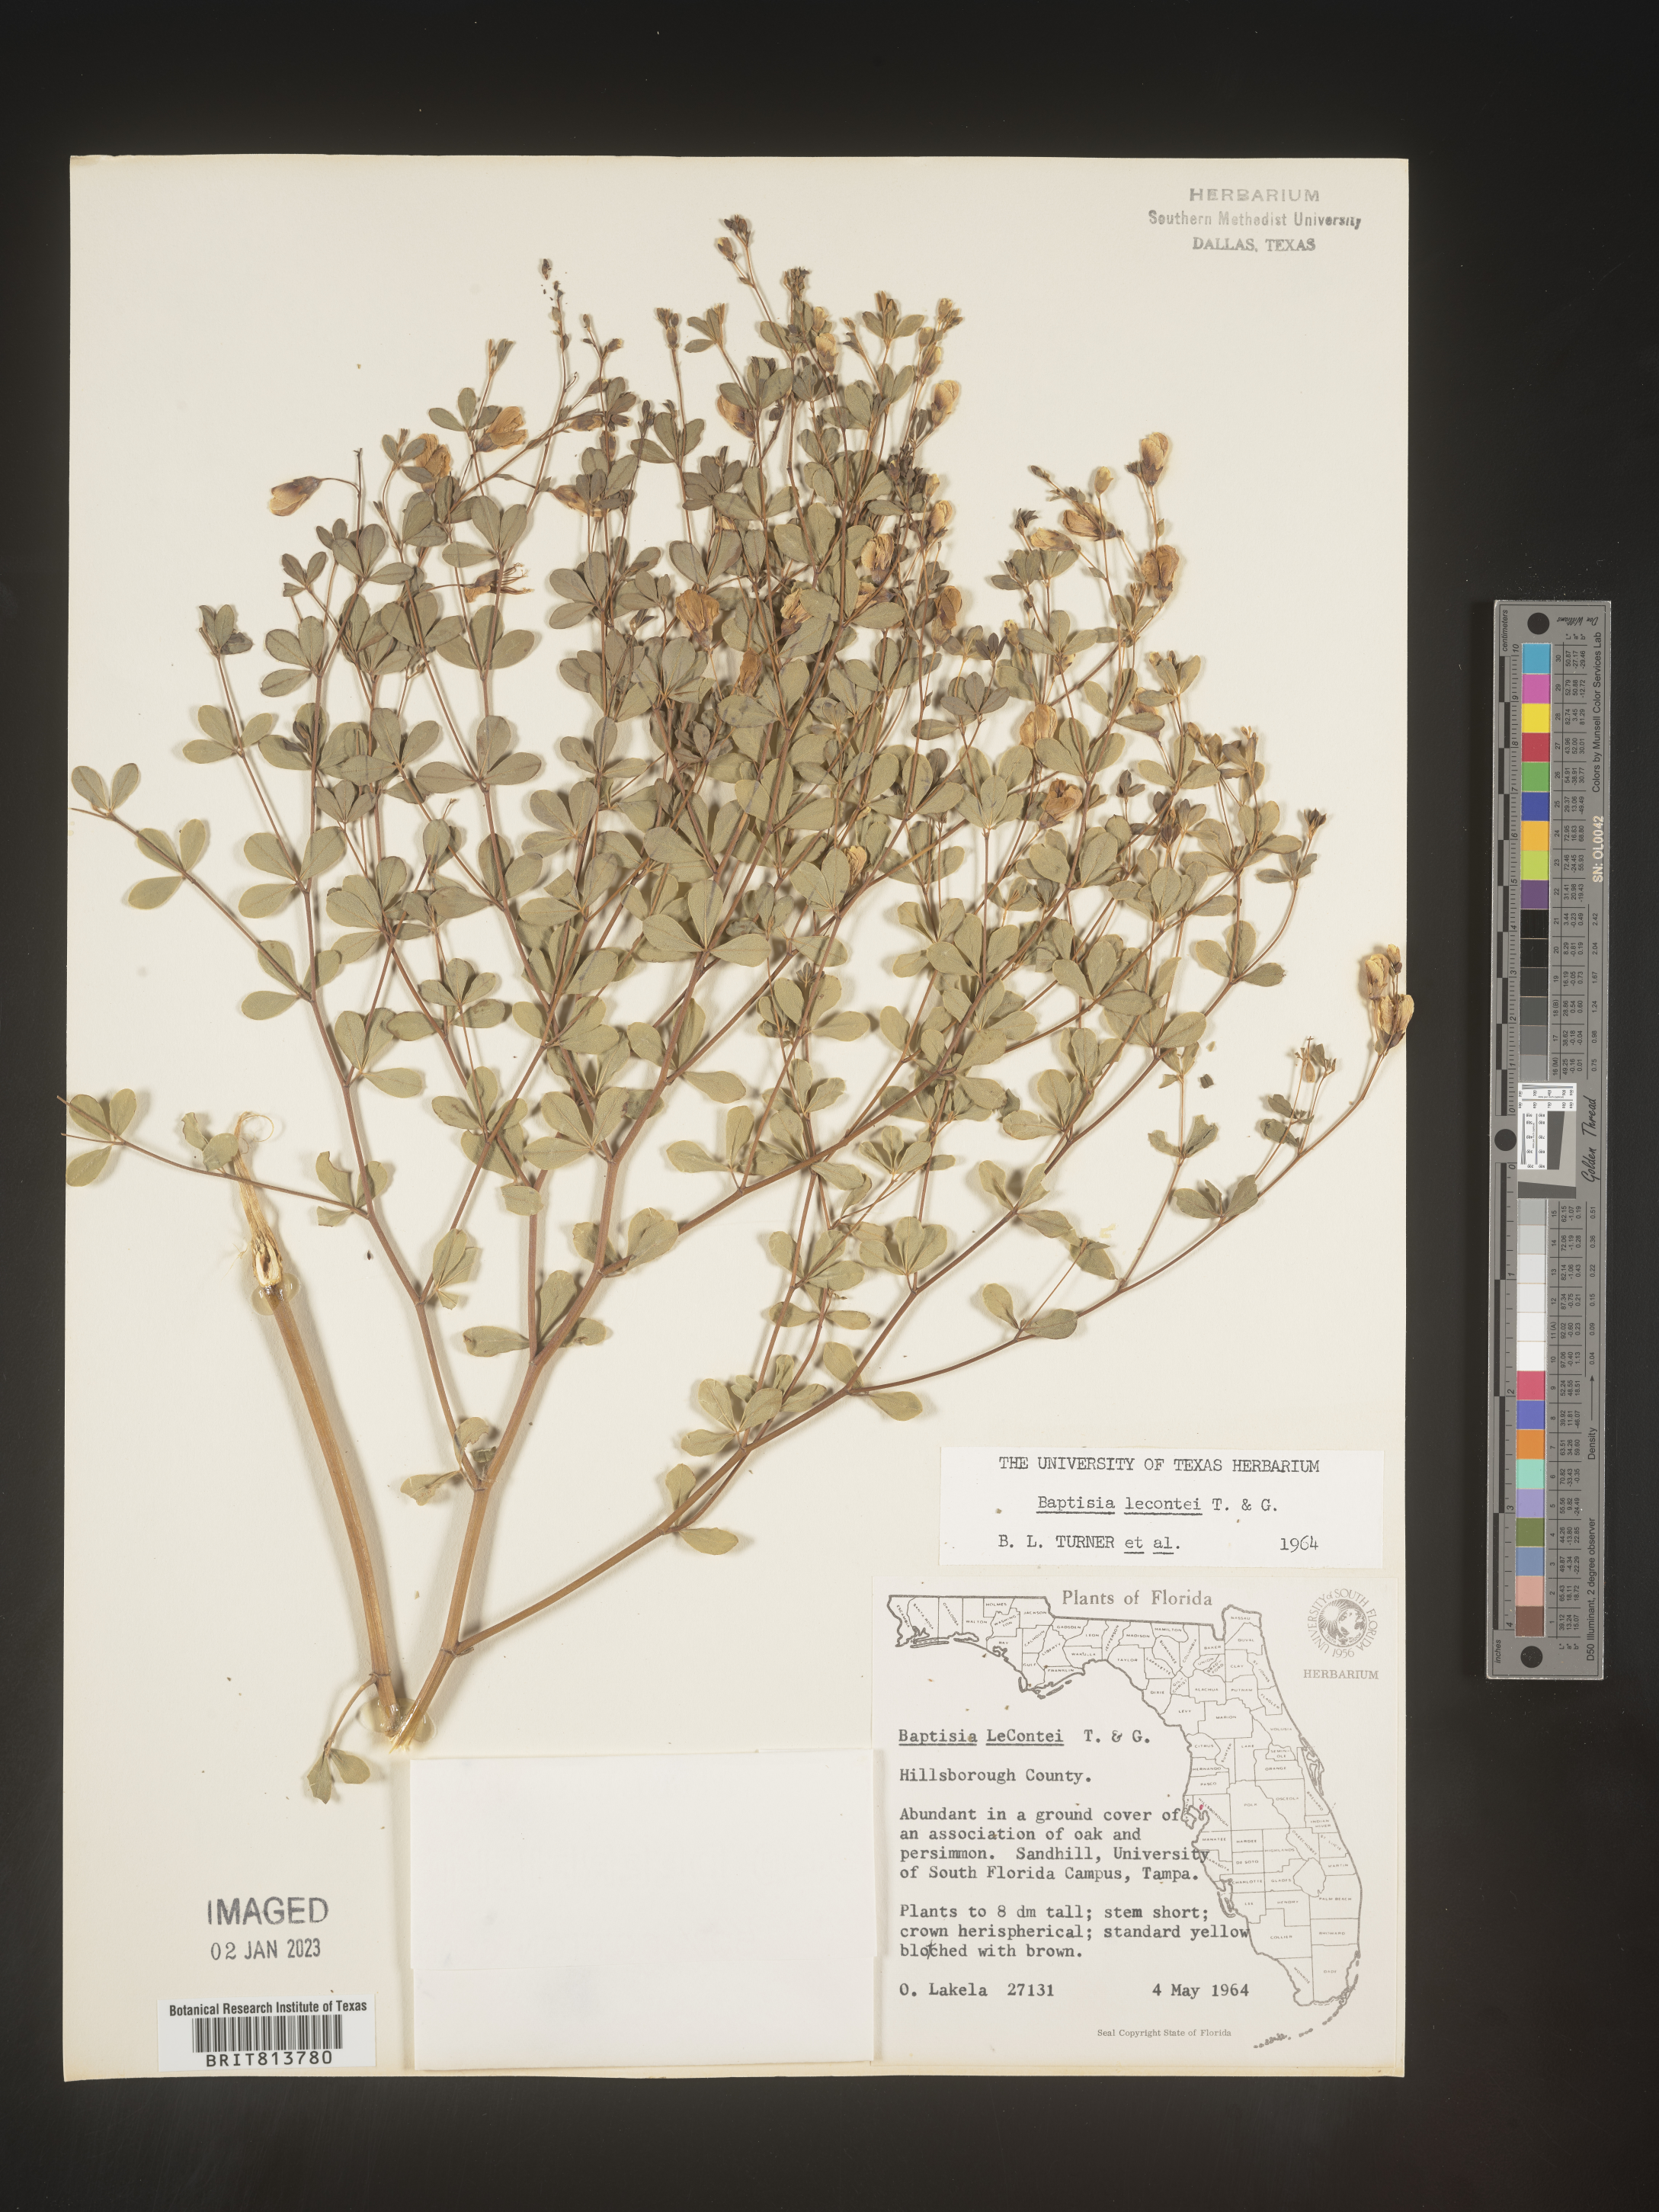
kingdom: Plantae
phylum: Tracheophyta
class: Magnoliopsida
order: Fabales
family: Fabaceae
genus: Baptisia
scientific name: Baptisia lecontei
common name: Pineland wild indigo
